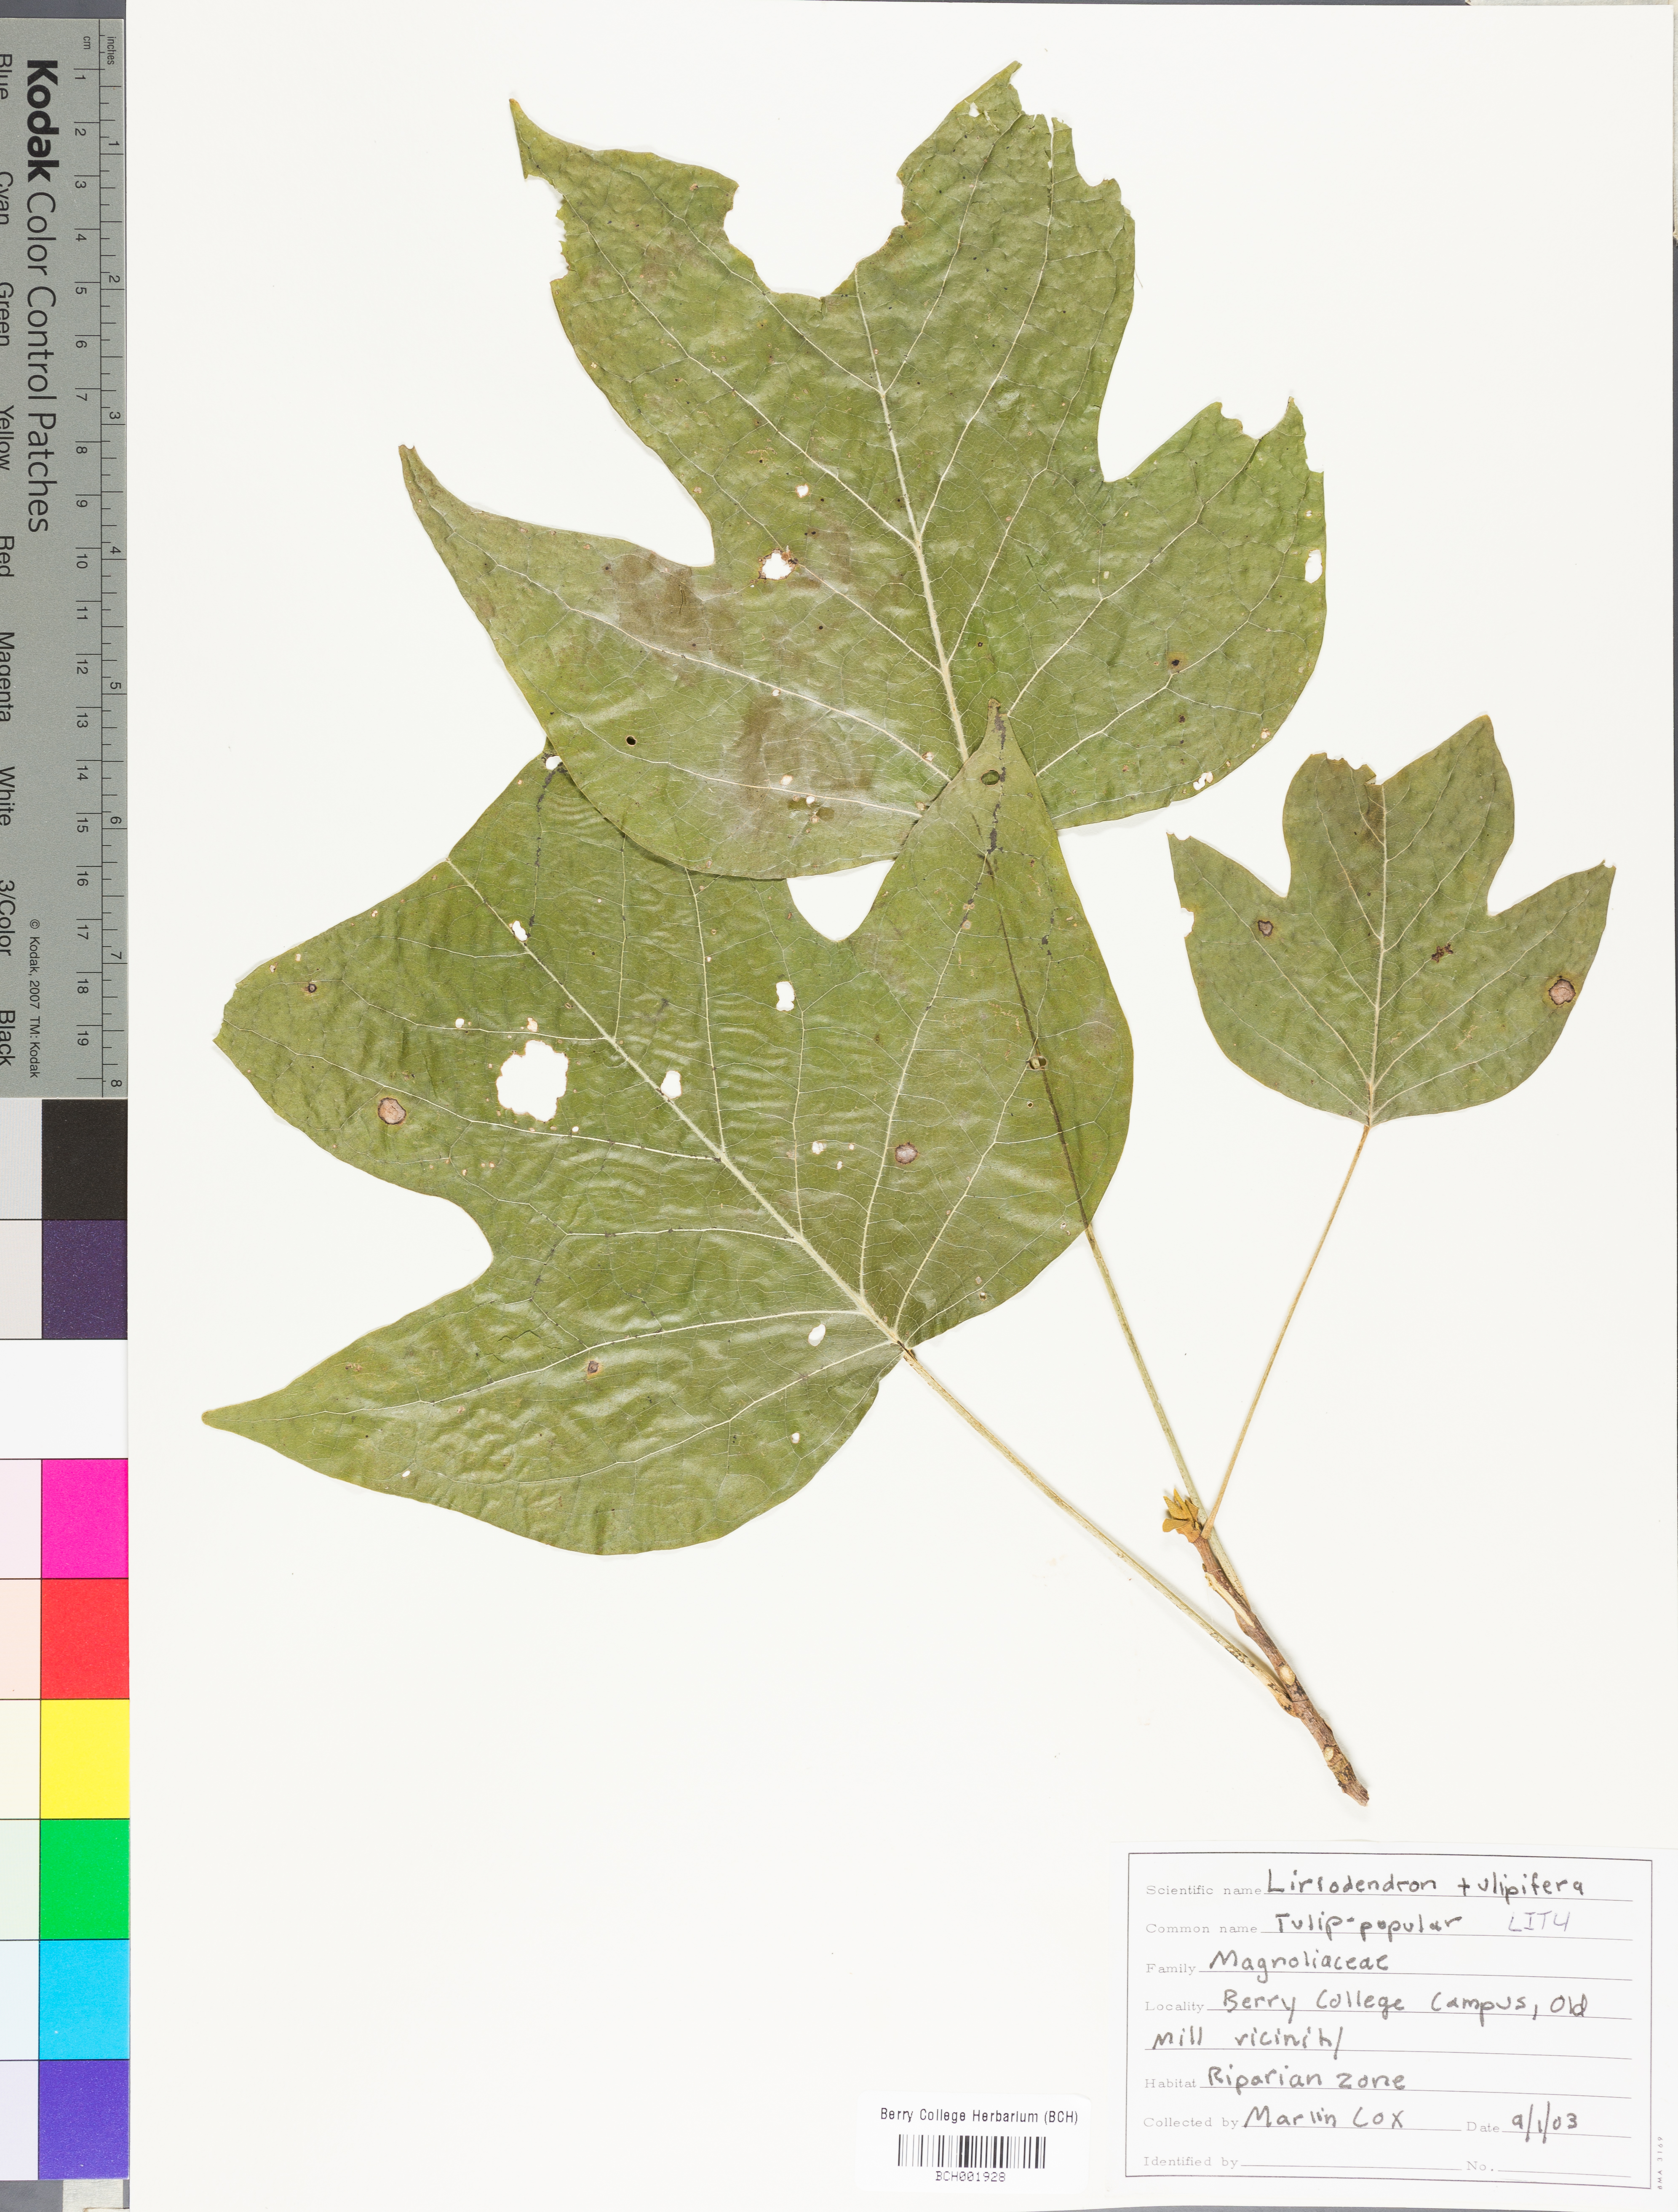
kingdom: Plantae
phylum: Tracheophyta
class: Magnoliopsida
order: Magnoliales
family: Magnoliaceae
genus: Liriodendron
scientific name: Liriodendron tulipifera
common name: Tulip tree
